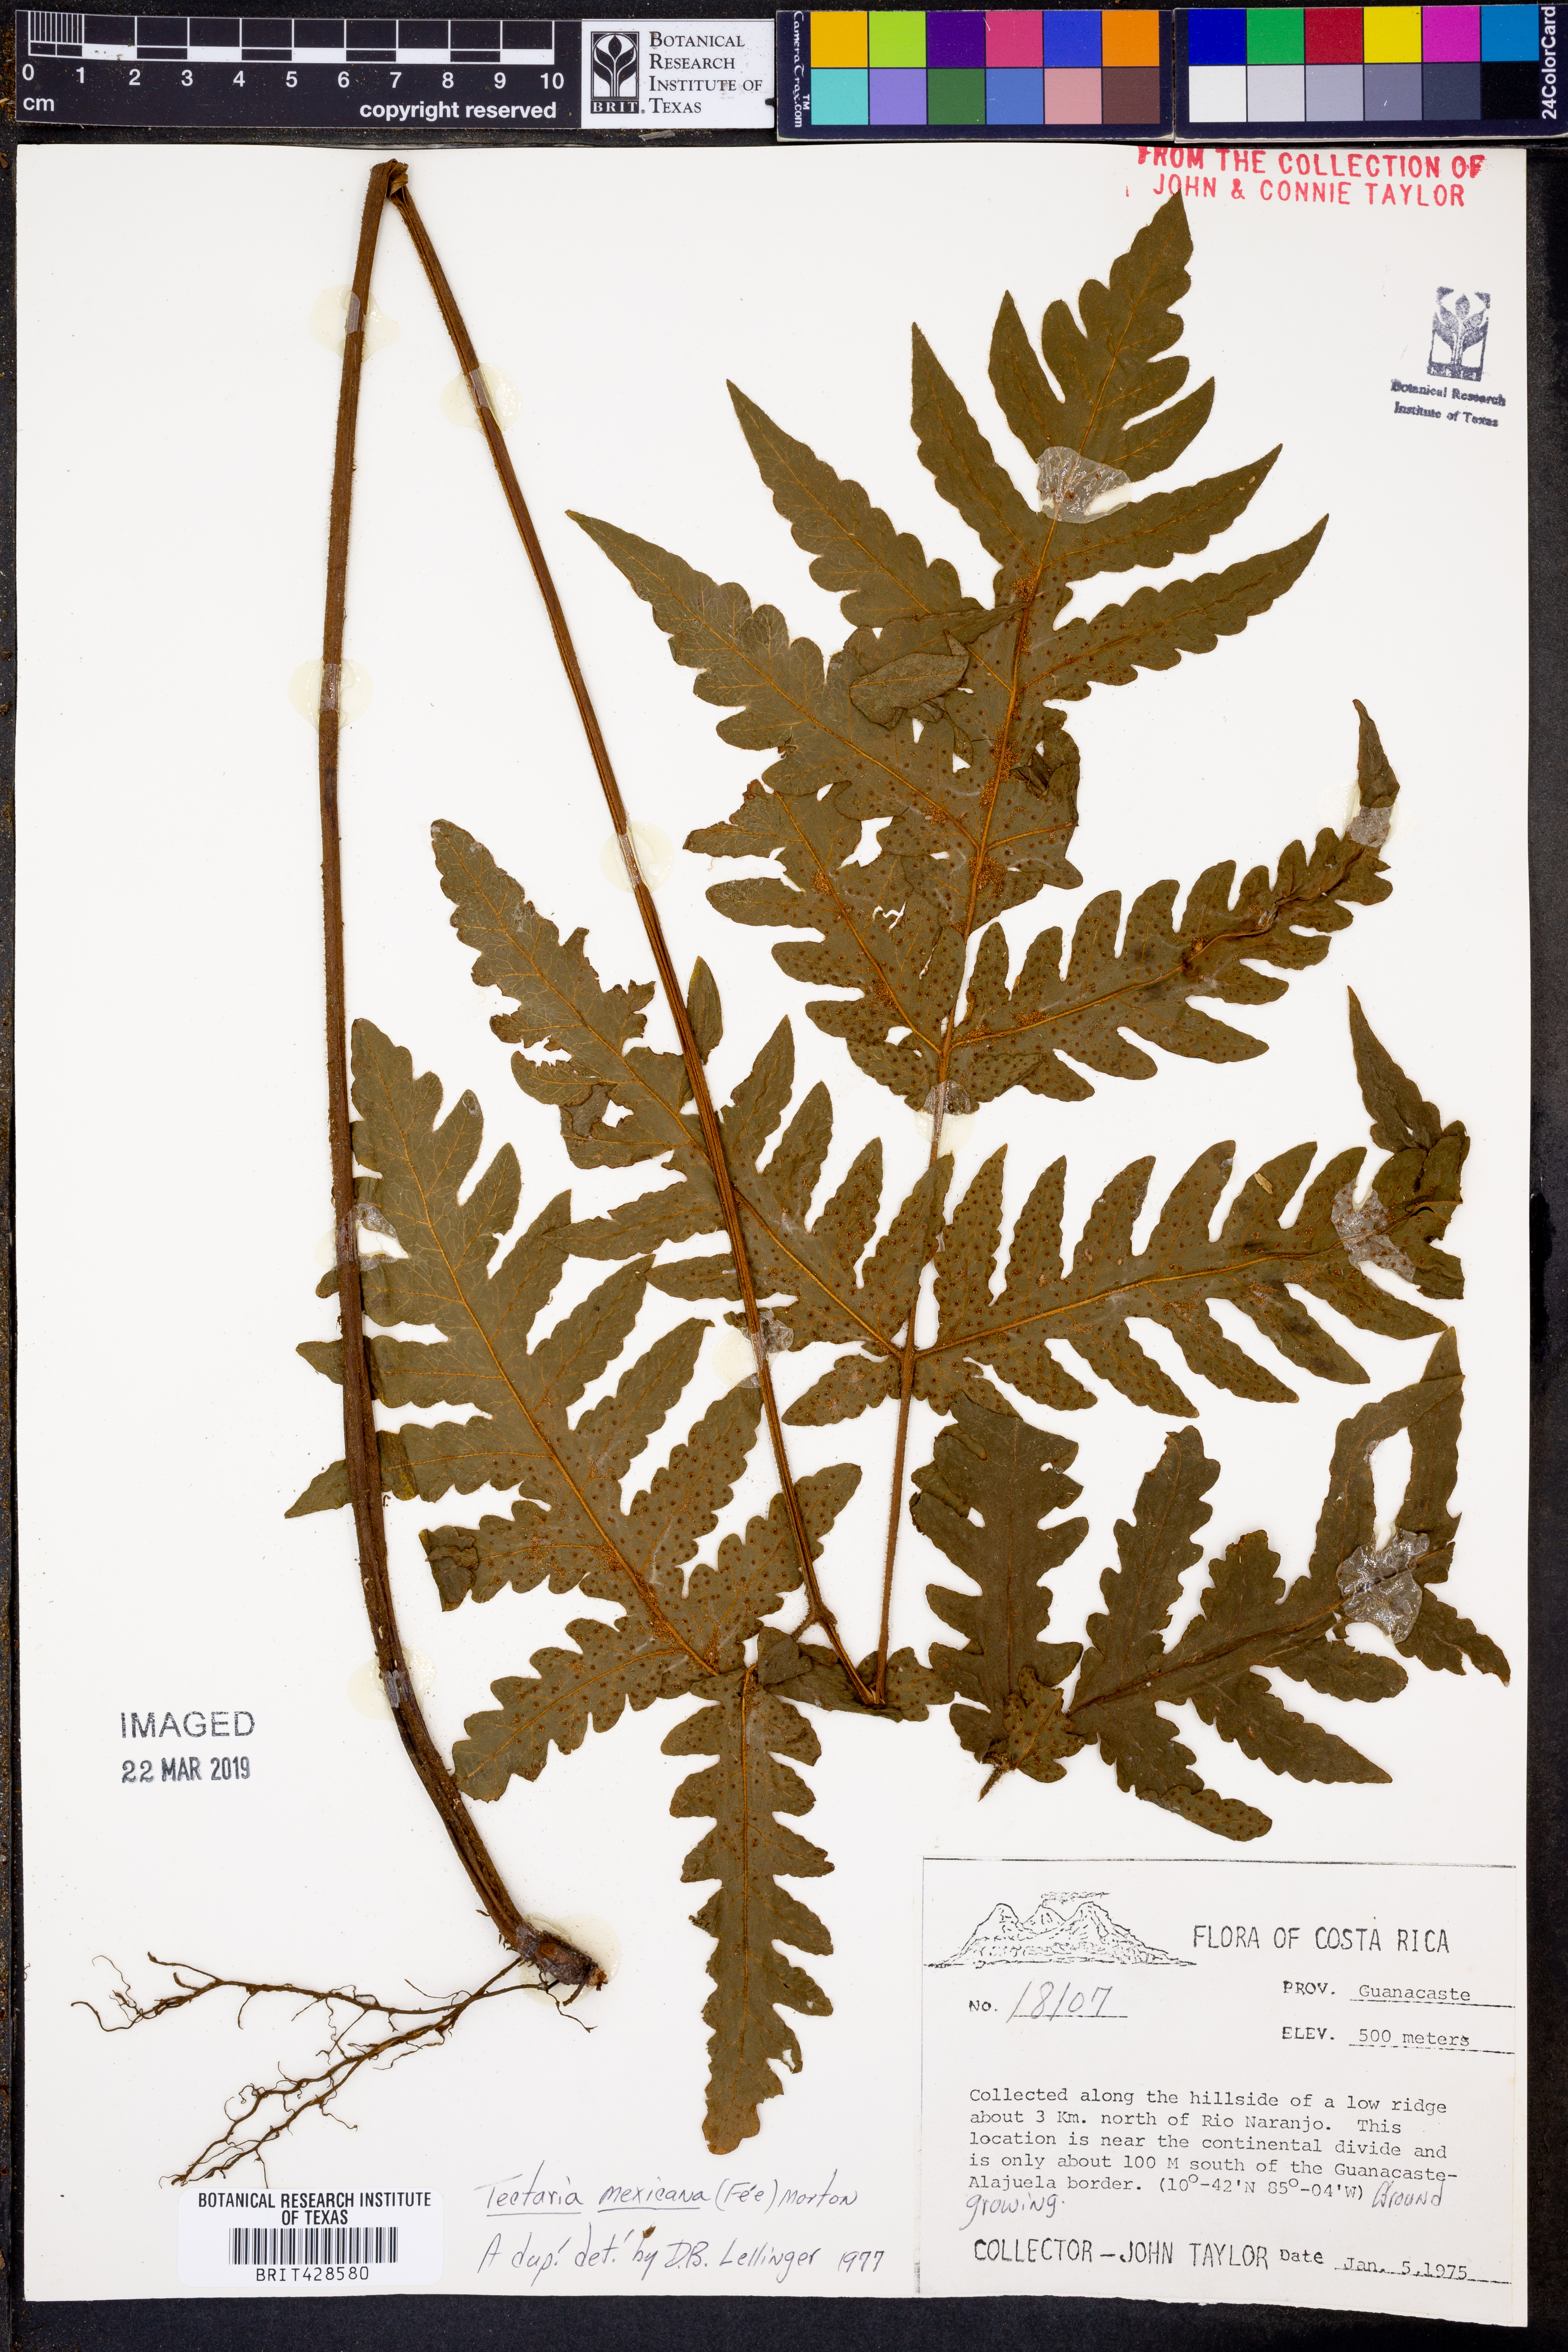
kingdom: Plantae
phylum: Tracheophyta
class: Polypodiopsida
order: Polypodiales
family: Tectariaceae
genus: Tectaria
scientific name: Tectaria mexicana
